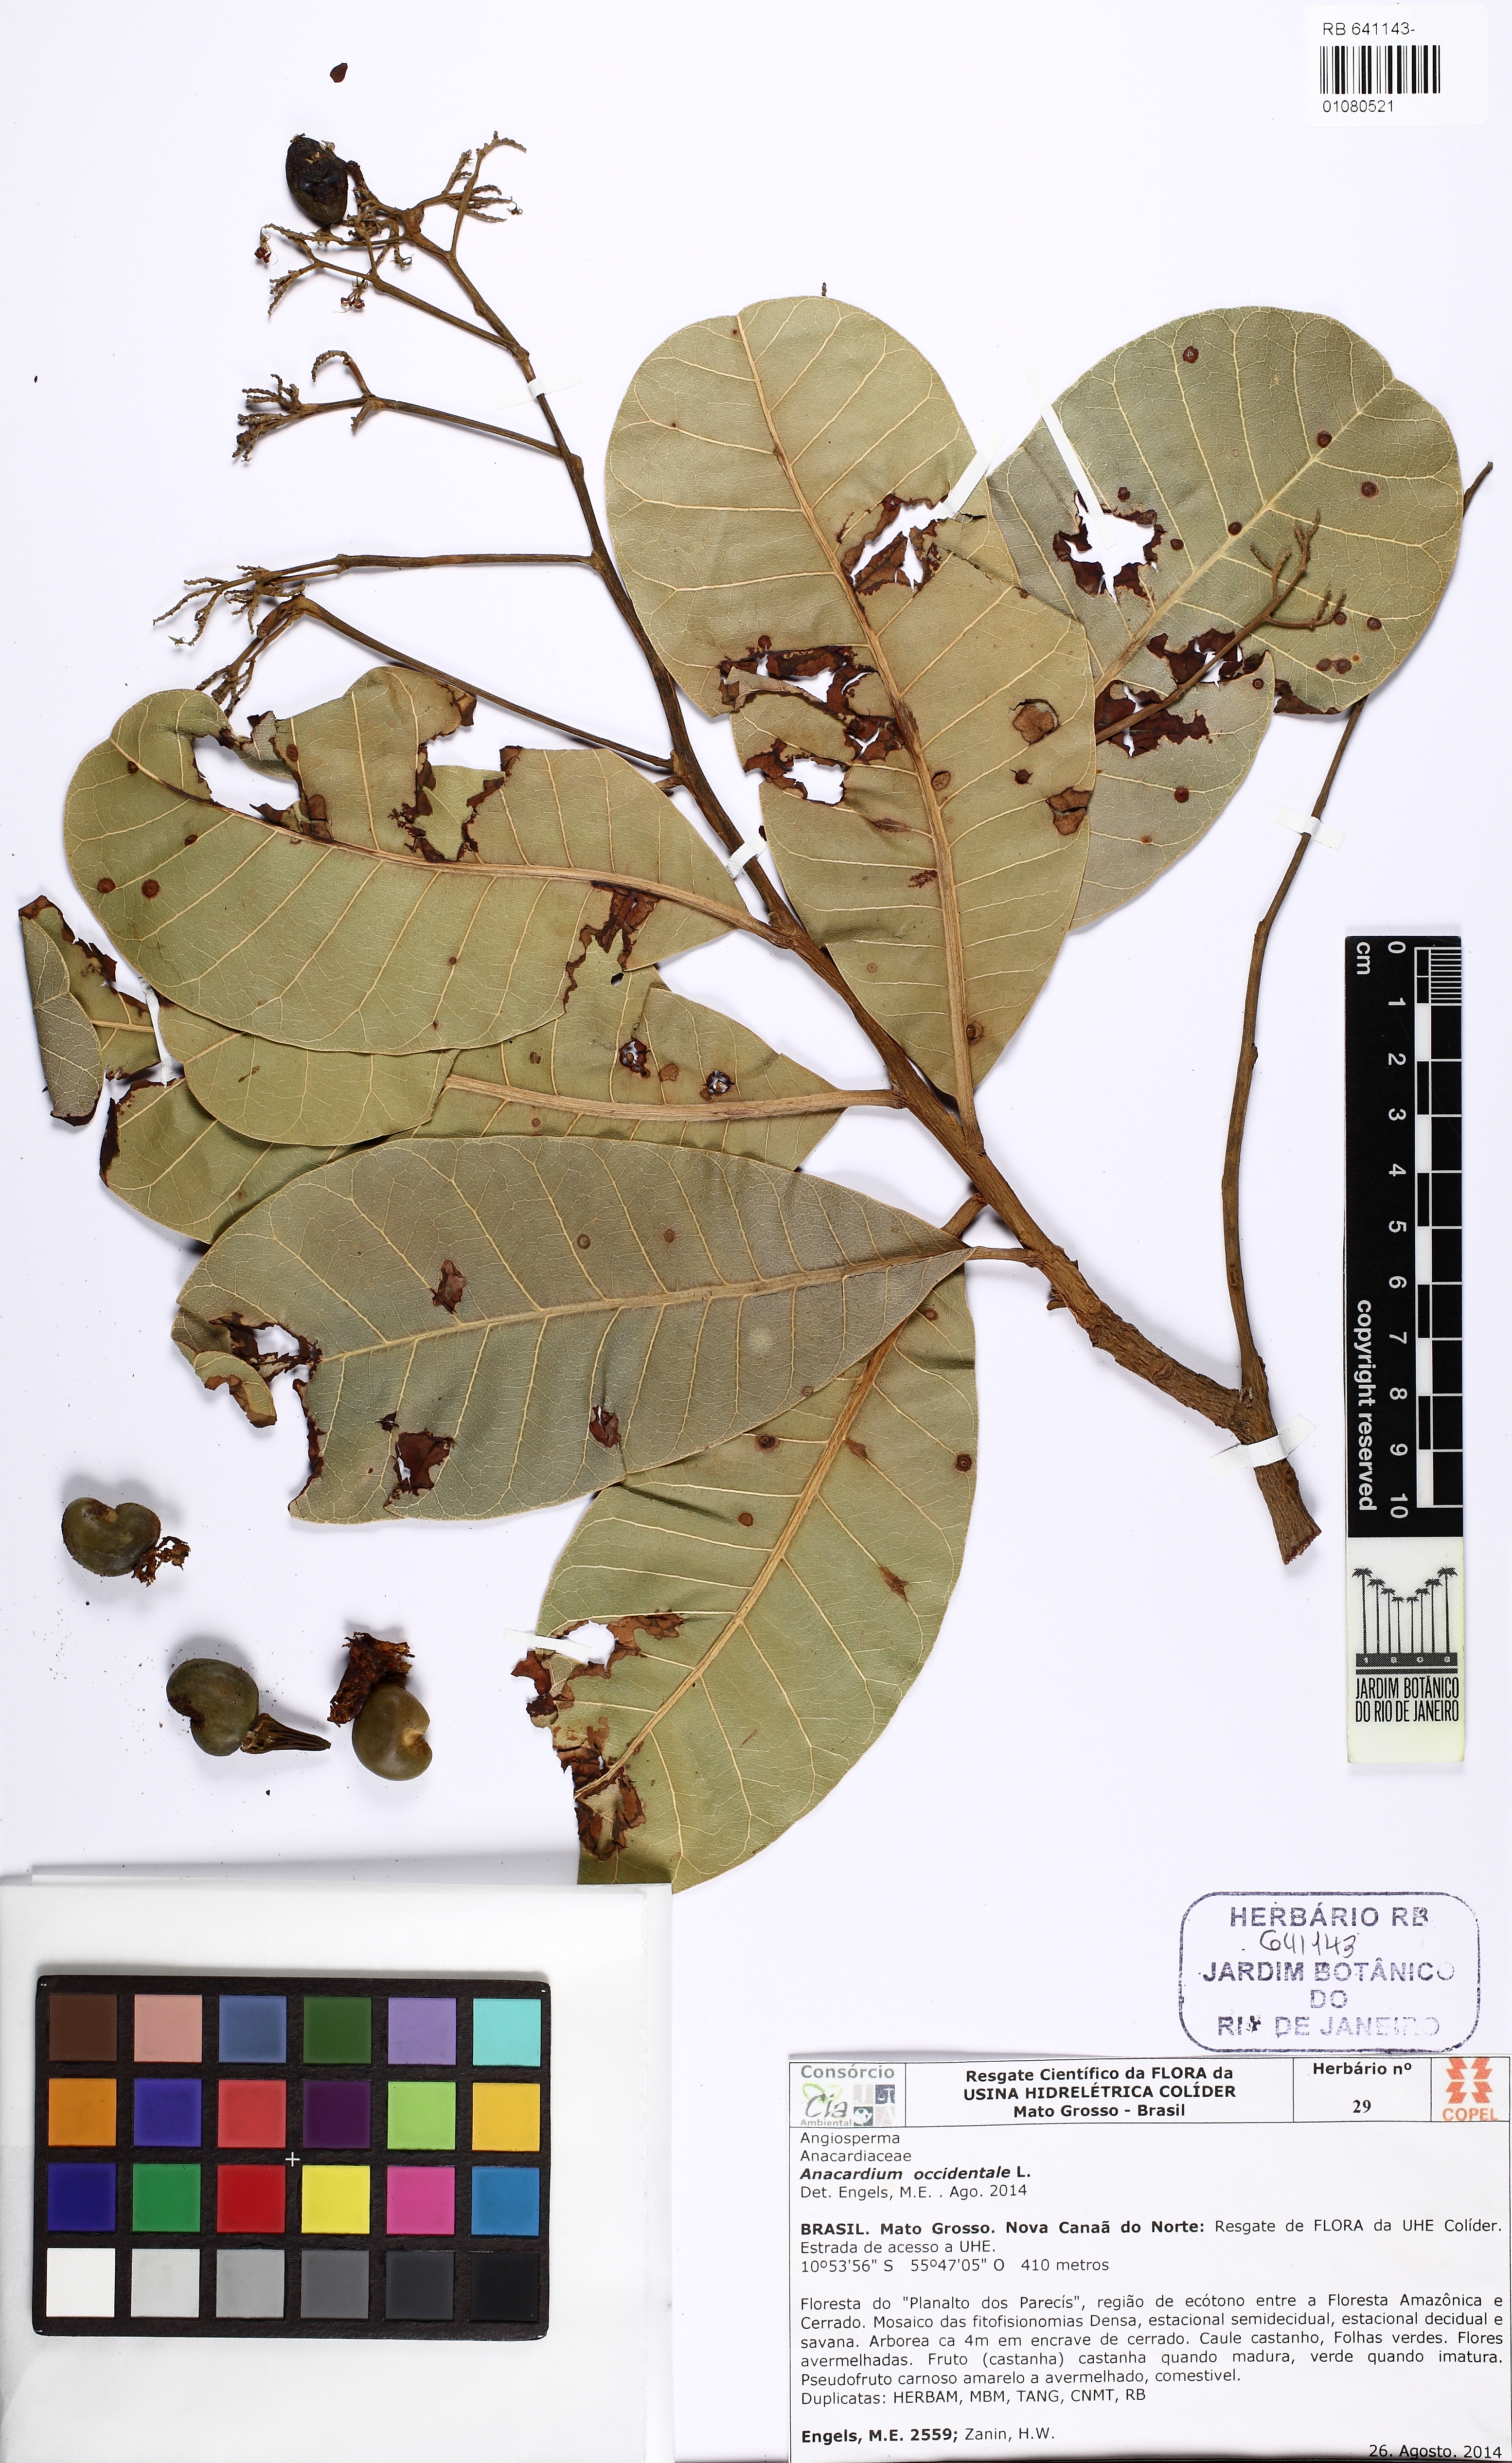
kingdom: Plantae
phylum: Tracheophyta
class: Magnoliopsida
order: Sapindales
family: Anacardiaceae
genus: Anacardium
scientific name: Anacardium occidentale
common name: Cashew
